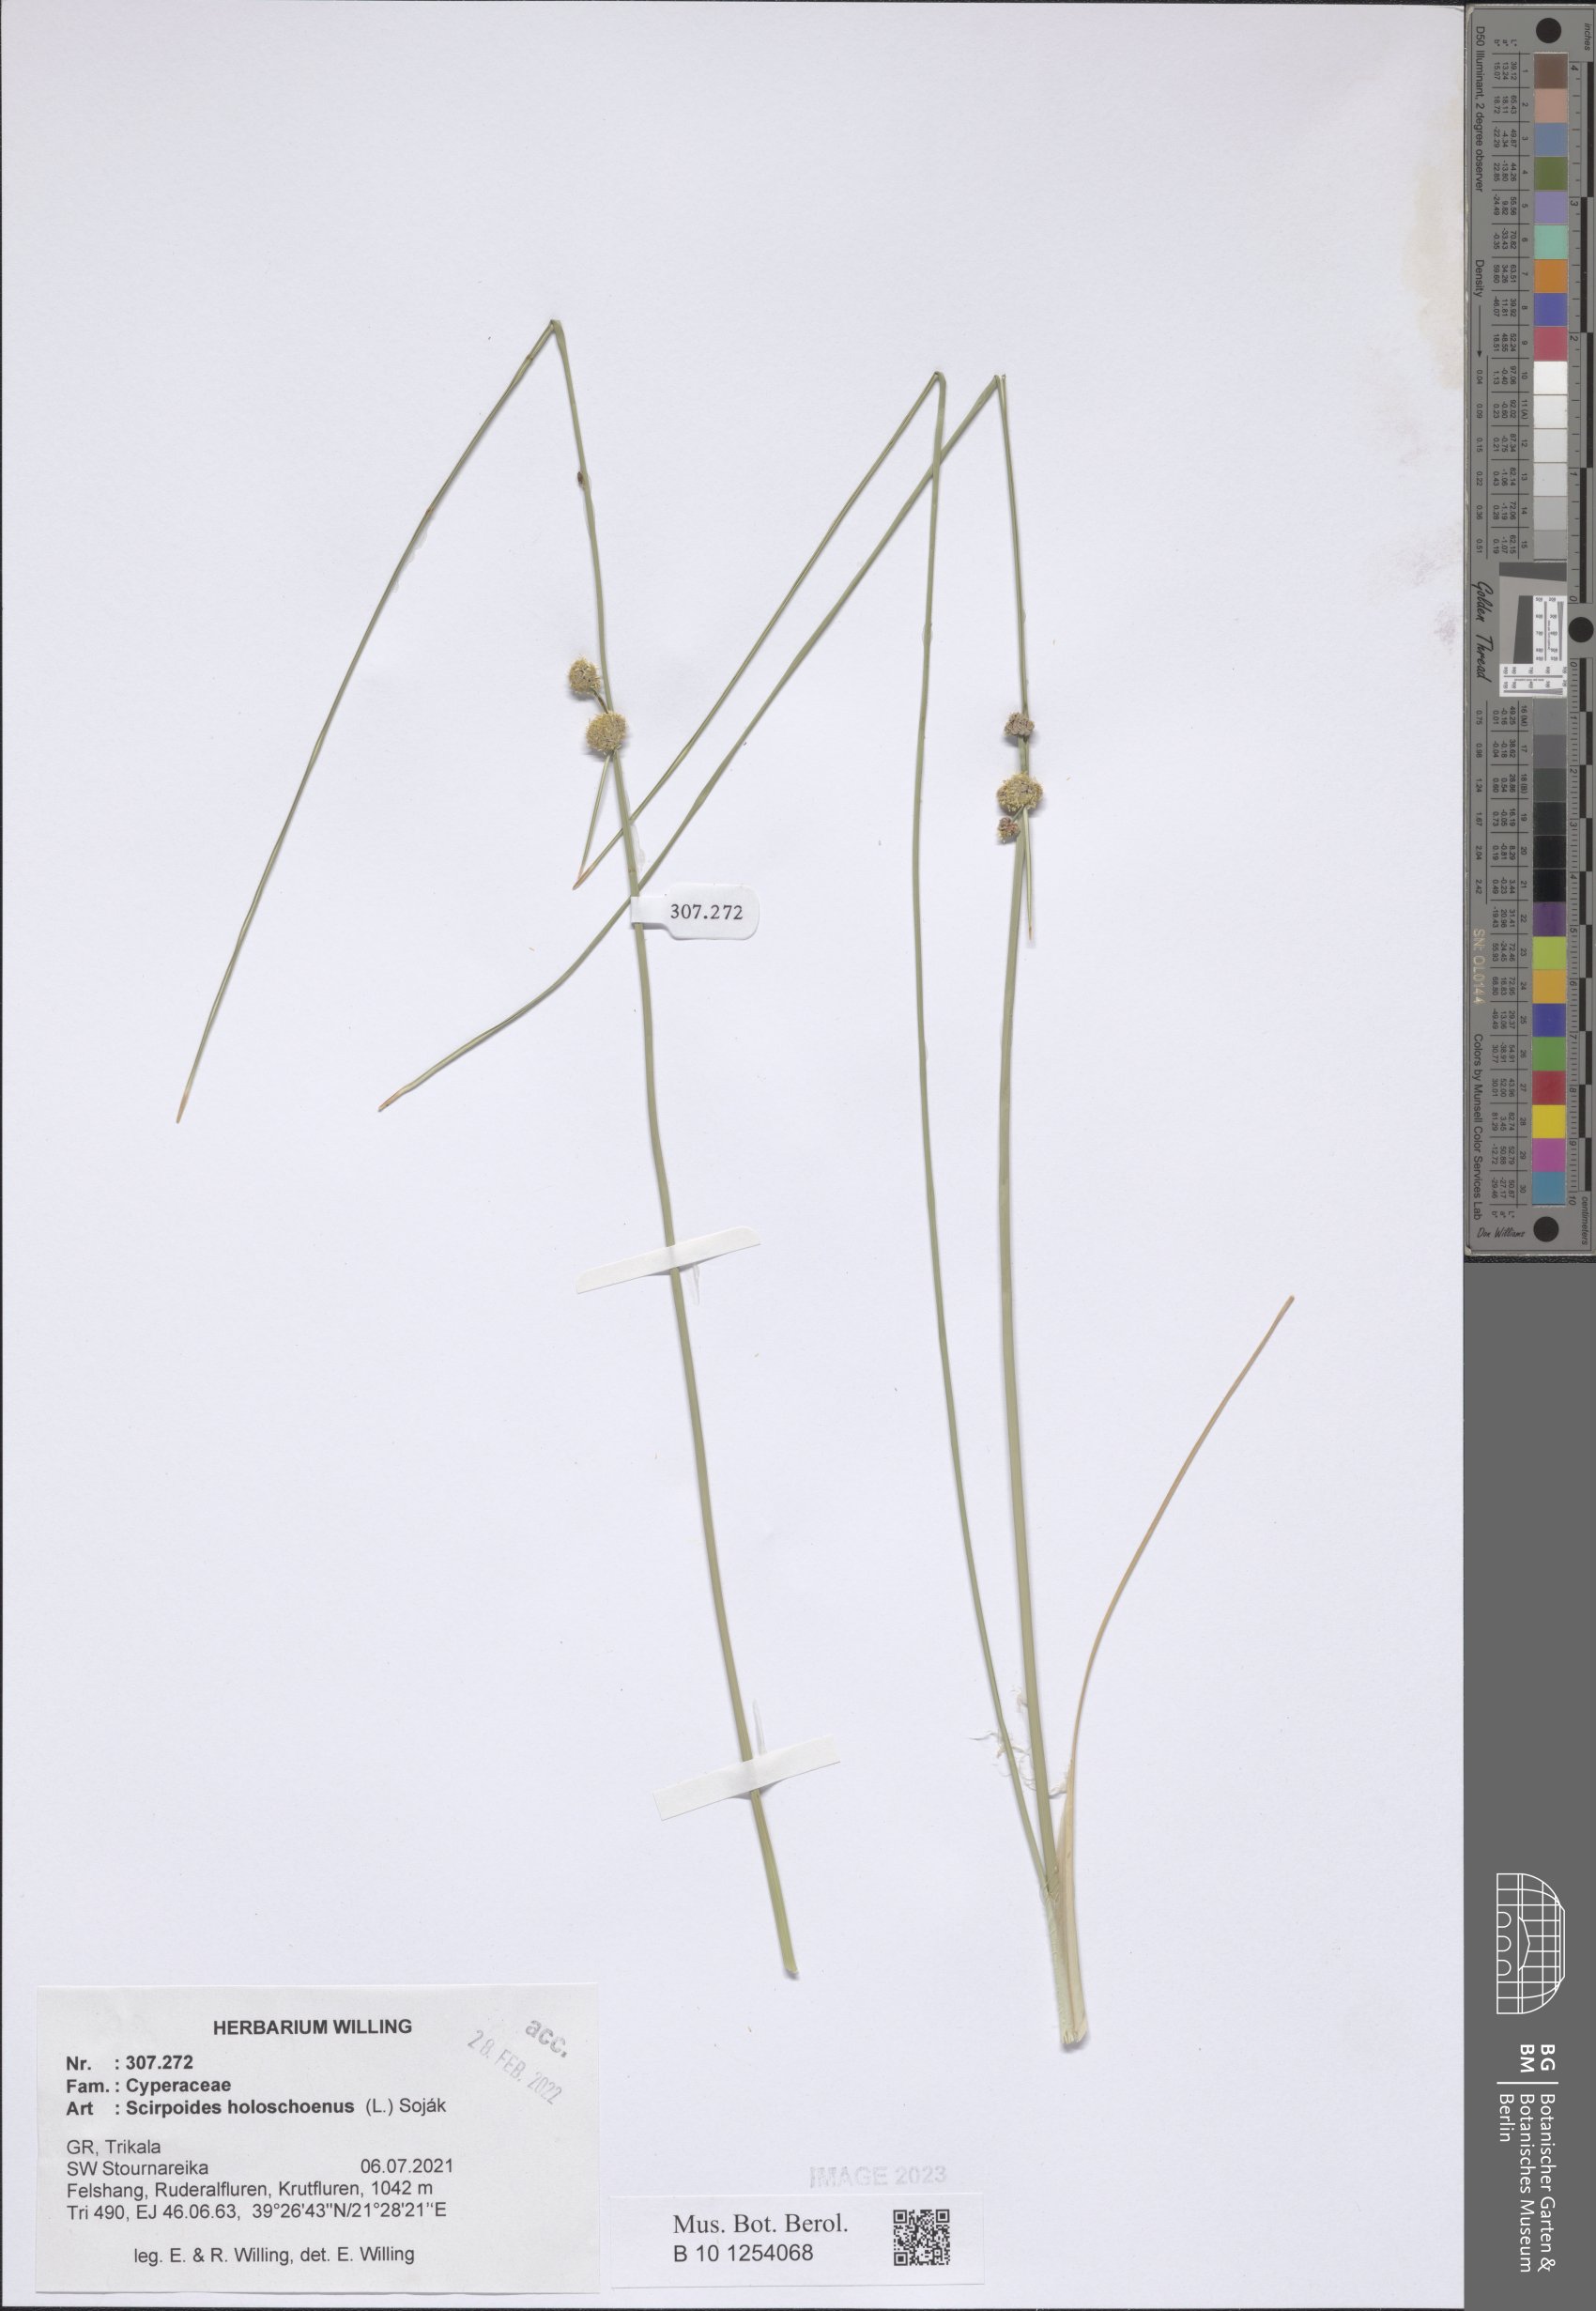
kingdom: Plantae
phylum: Tracheophyta
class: Liliopsida
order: Poales
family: Cyperaceae
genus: Scirpoides
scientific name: Scirpoides
